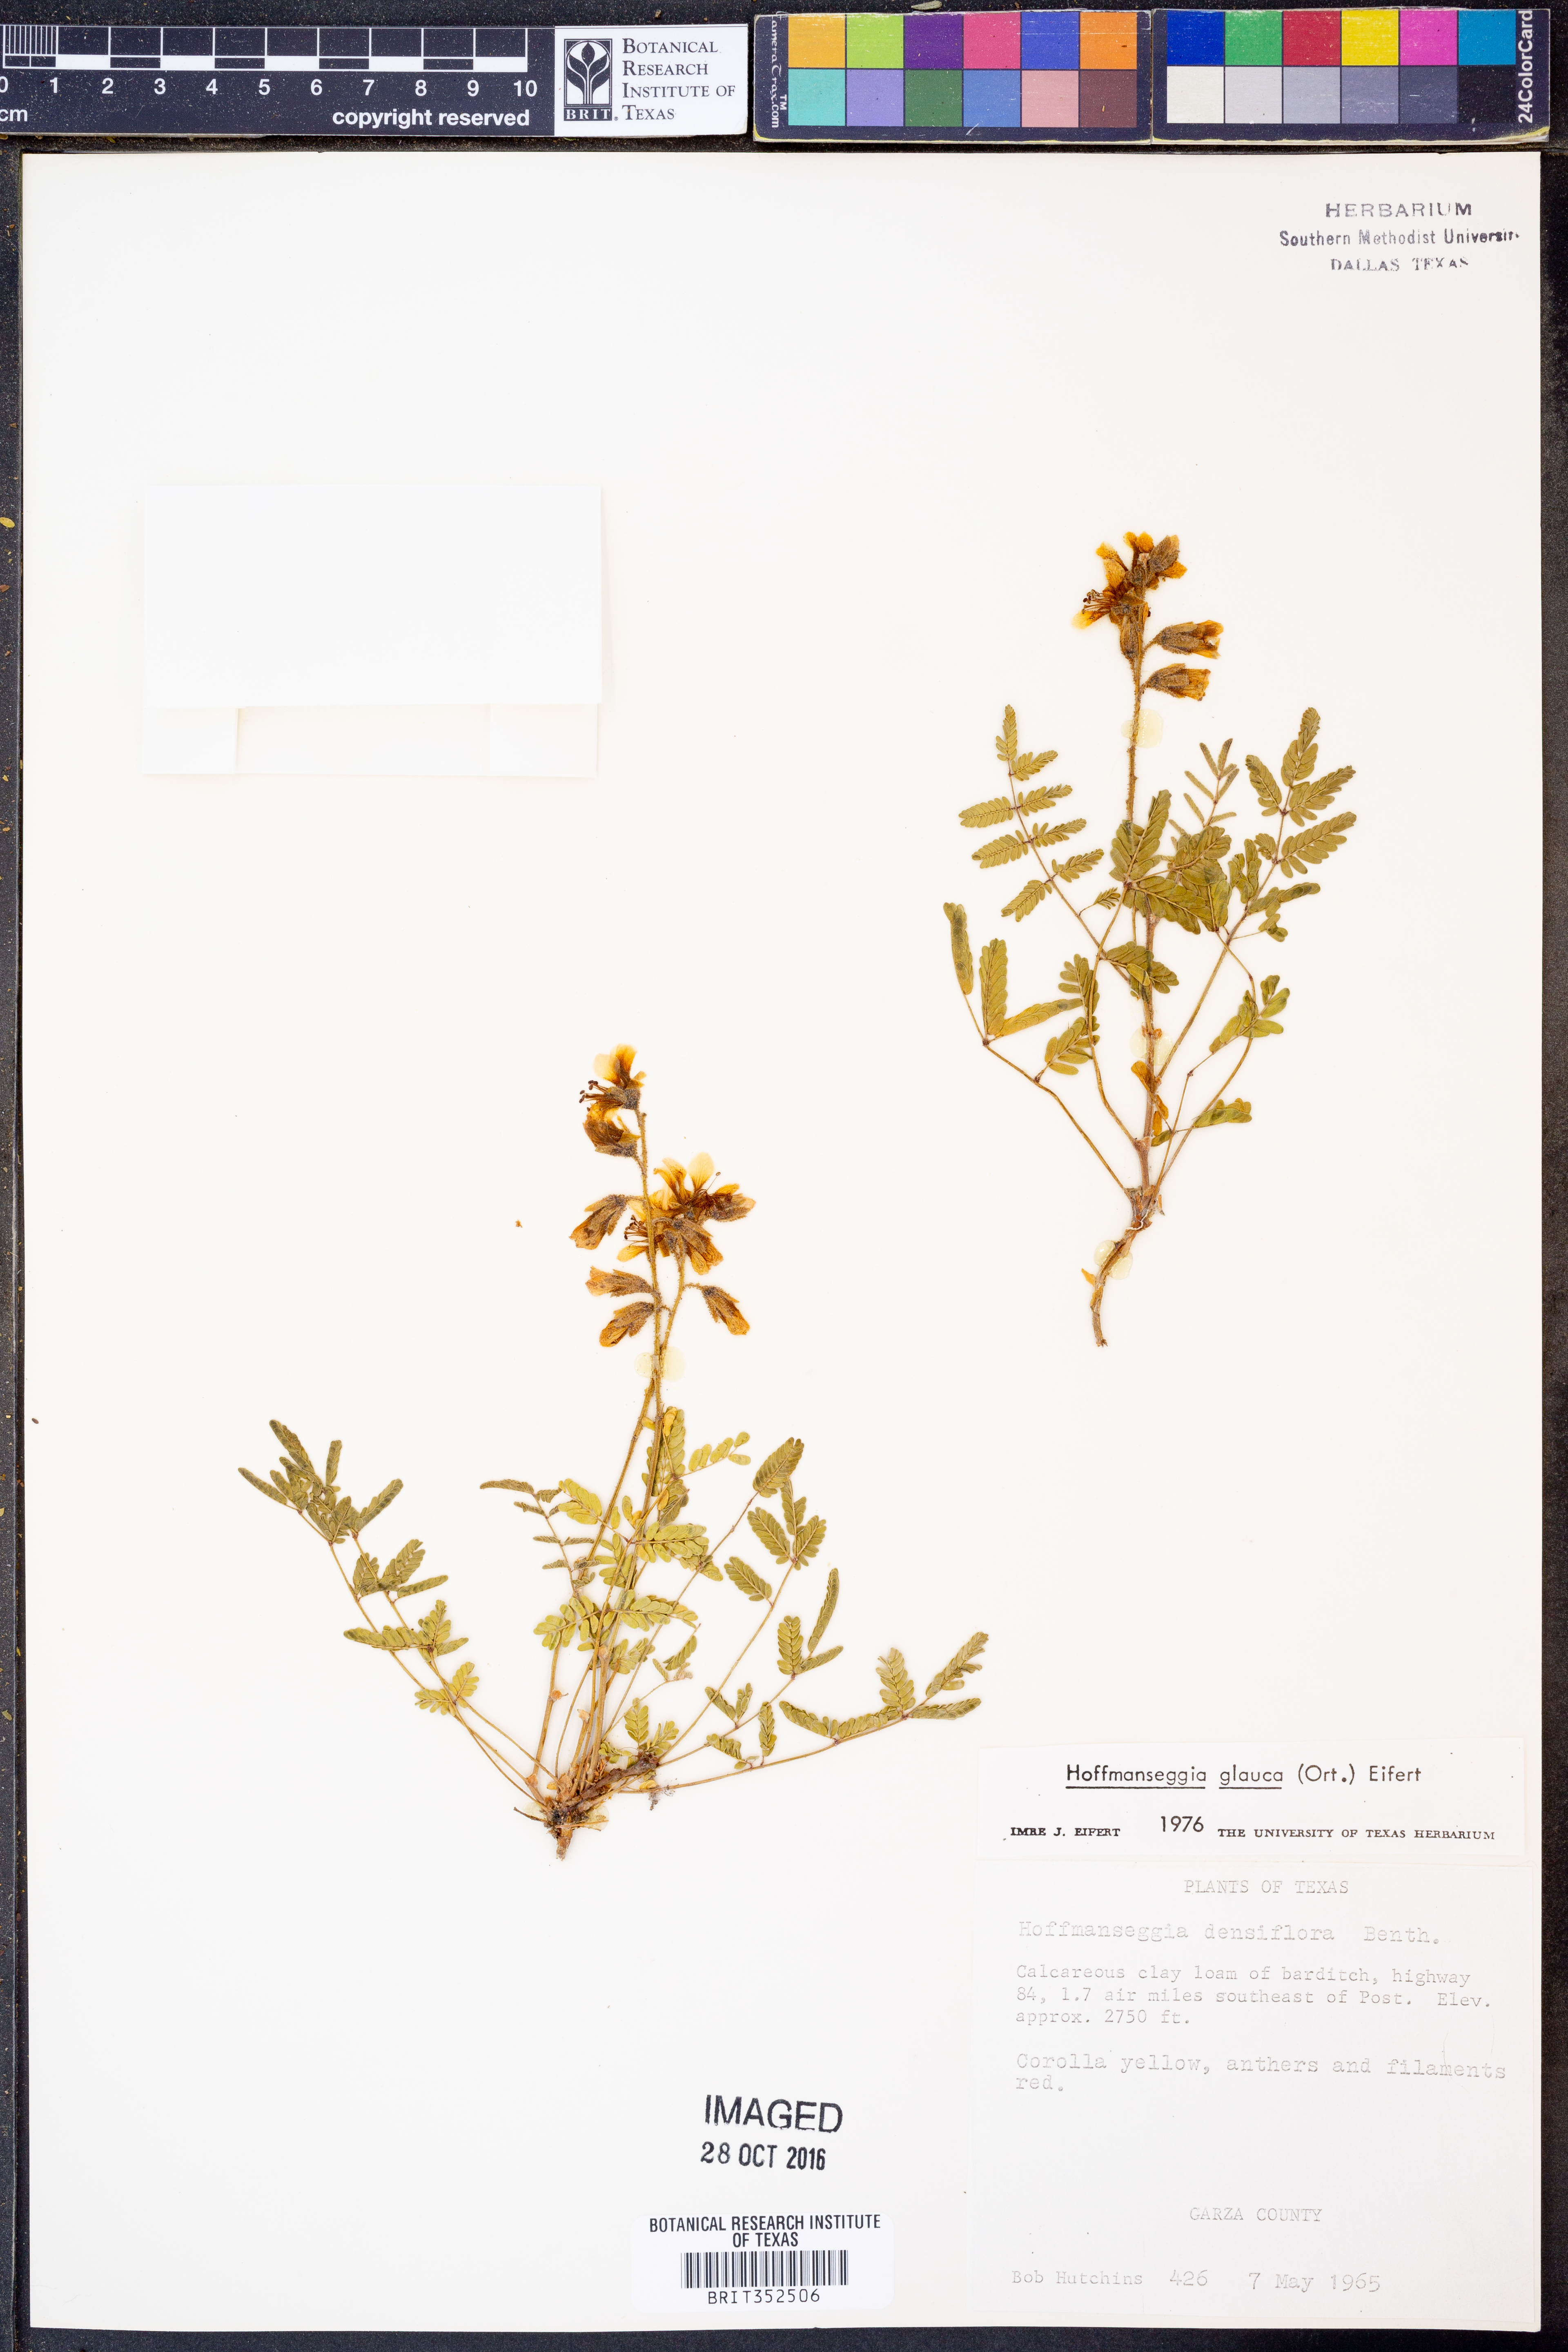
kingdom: Plantae
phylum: Tracheophyta
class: Magnoliopsida
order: Fabales
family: Fabaceae
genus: Hoffmannseggia
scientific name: Hoffmannseggia glauca
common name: Pignut
